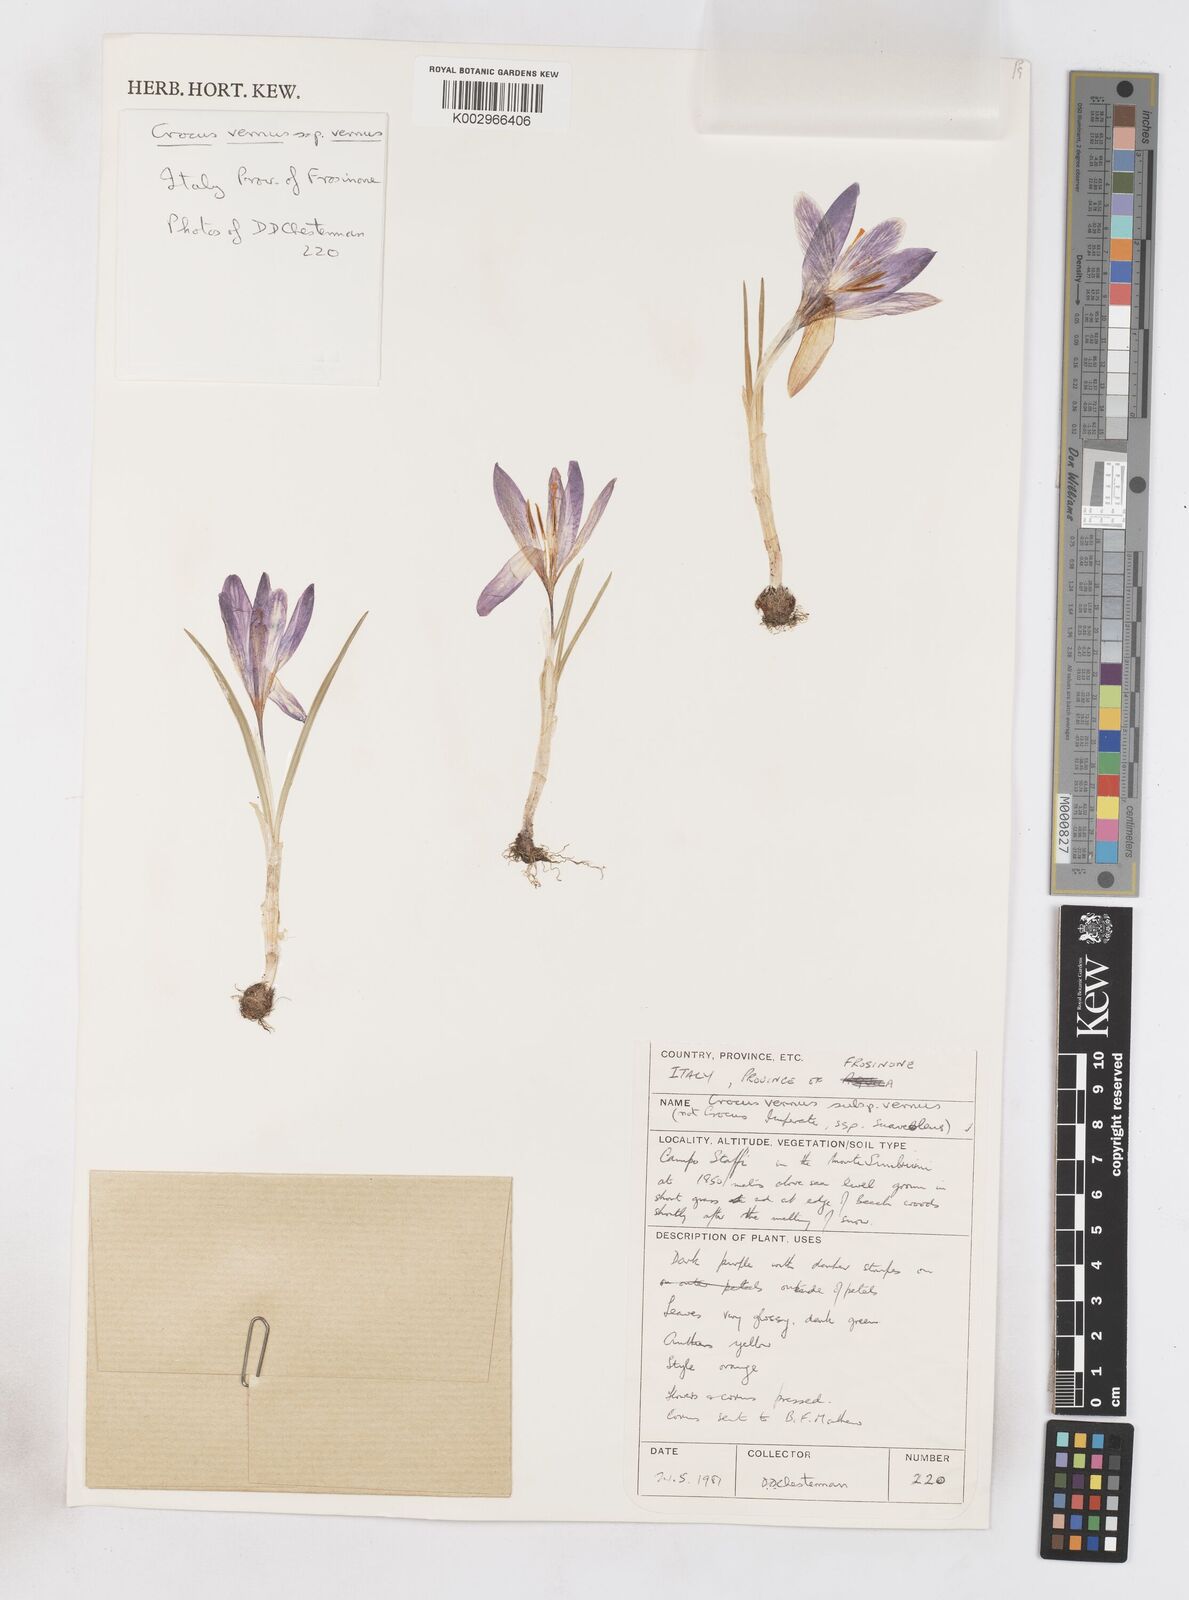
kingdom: Plantae
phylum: Tracheophyta
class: Liliopsida
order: Asparagales
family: Iridaceae
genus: Crocus
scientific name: Crocus vernus
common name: Spring crocus
